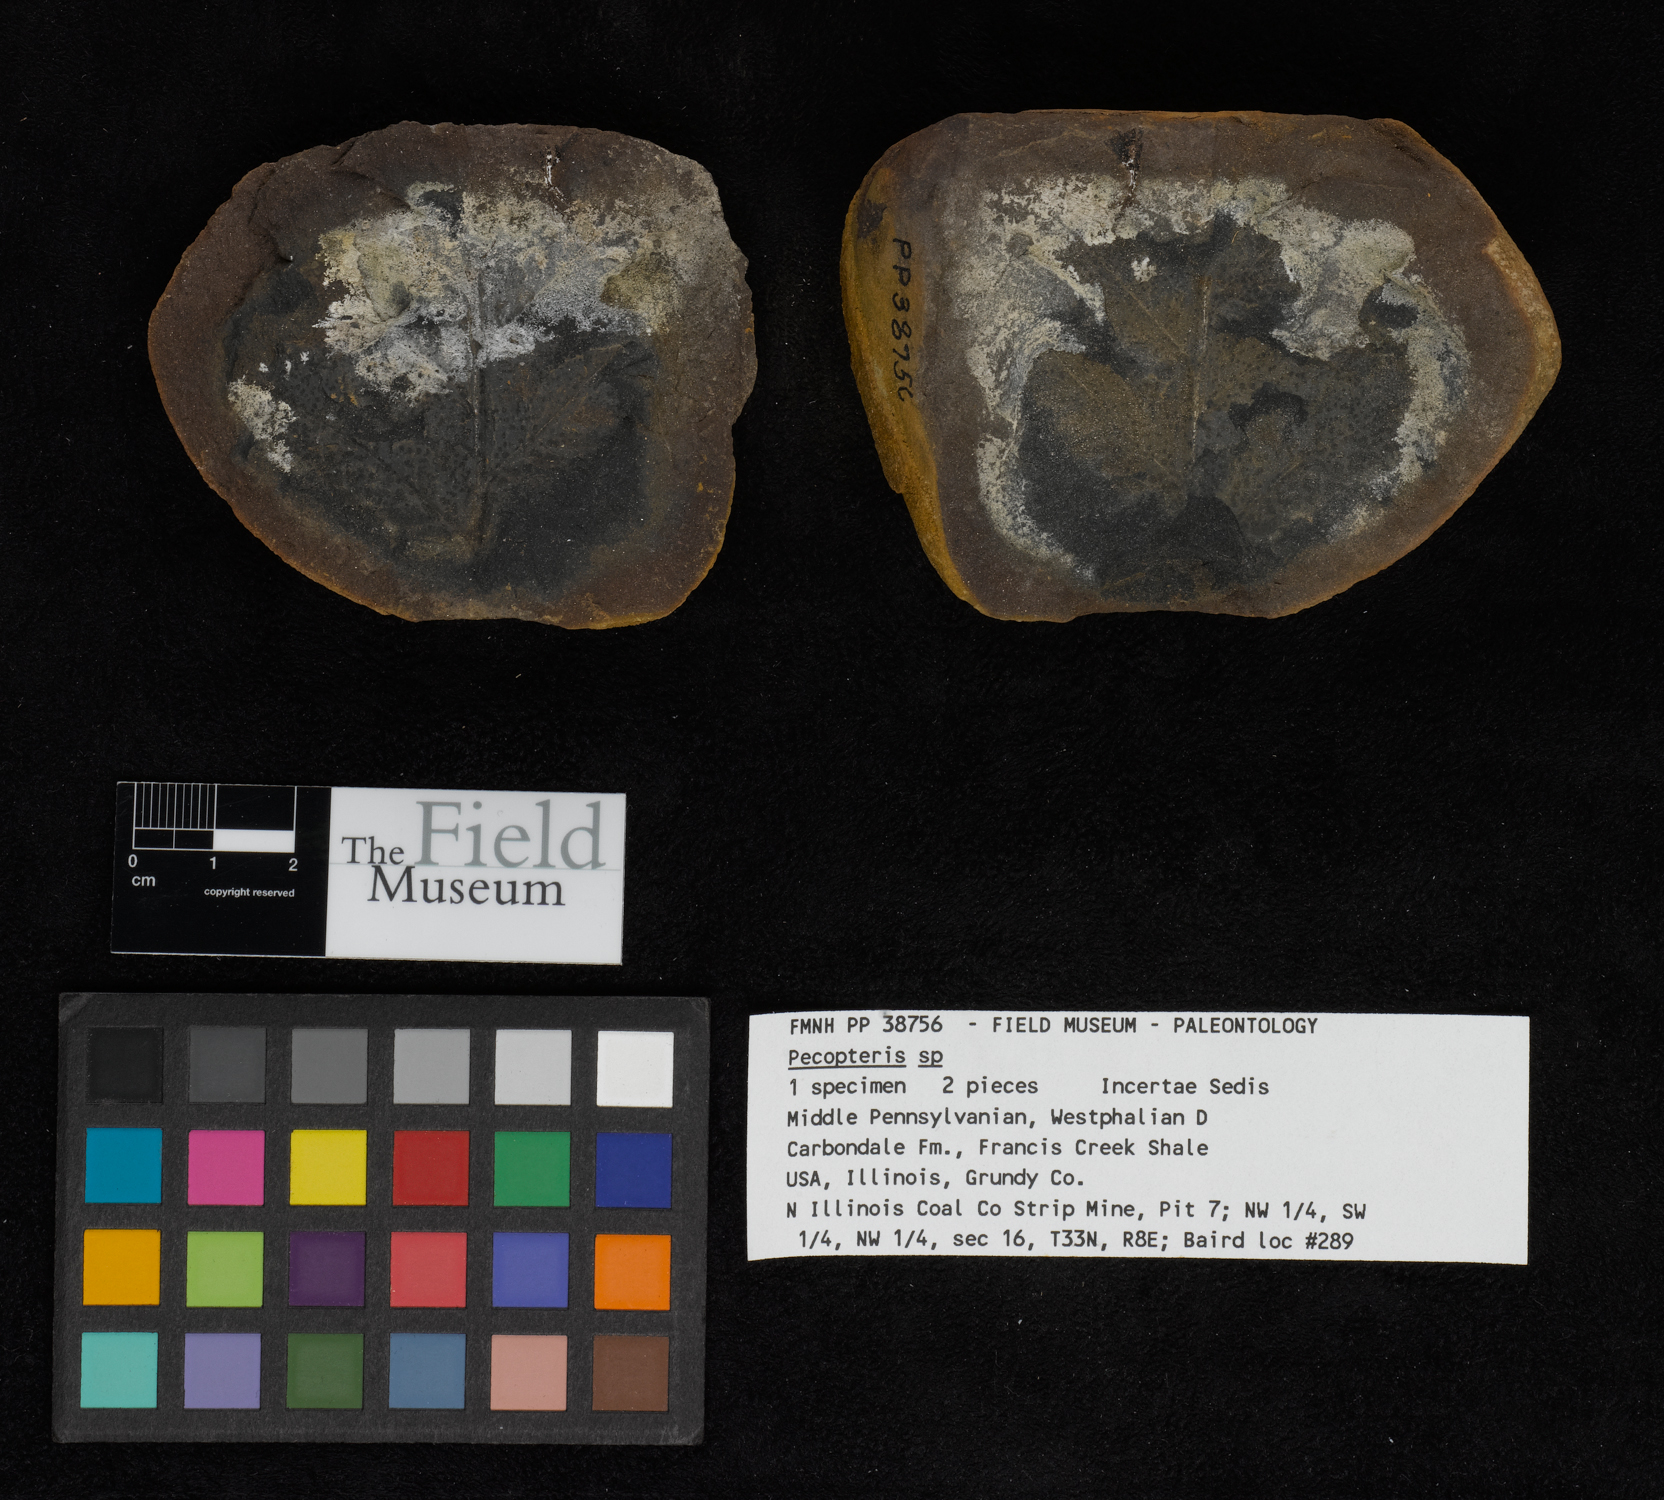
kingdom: Plantae
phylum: Tracheophyta
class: Polypodiopsida
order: Marattiales
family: Asterothecaceae
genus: Pecopteris
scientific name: Pecopteris
